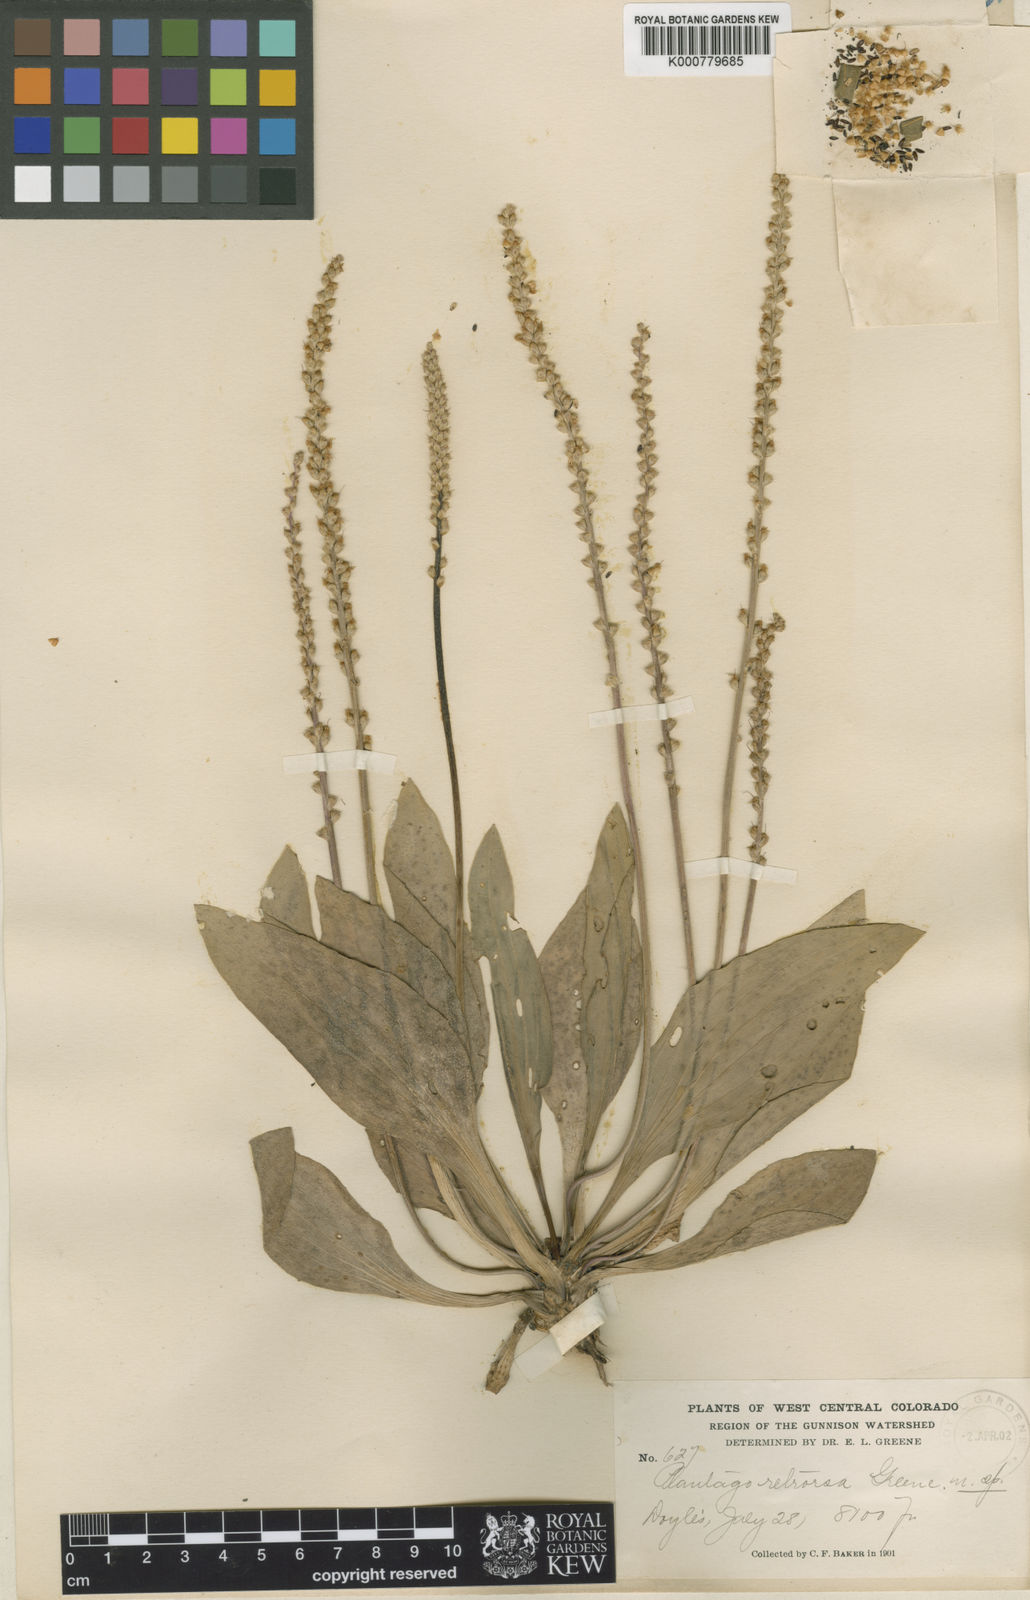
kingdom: Plantae
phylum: Tracheophyta
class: Magnoliopsida
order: Lamiales
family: Plantaginaceae
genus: Plantago
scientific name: Plantago eriopoda
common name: Alkali plantain
